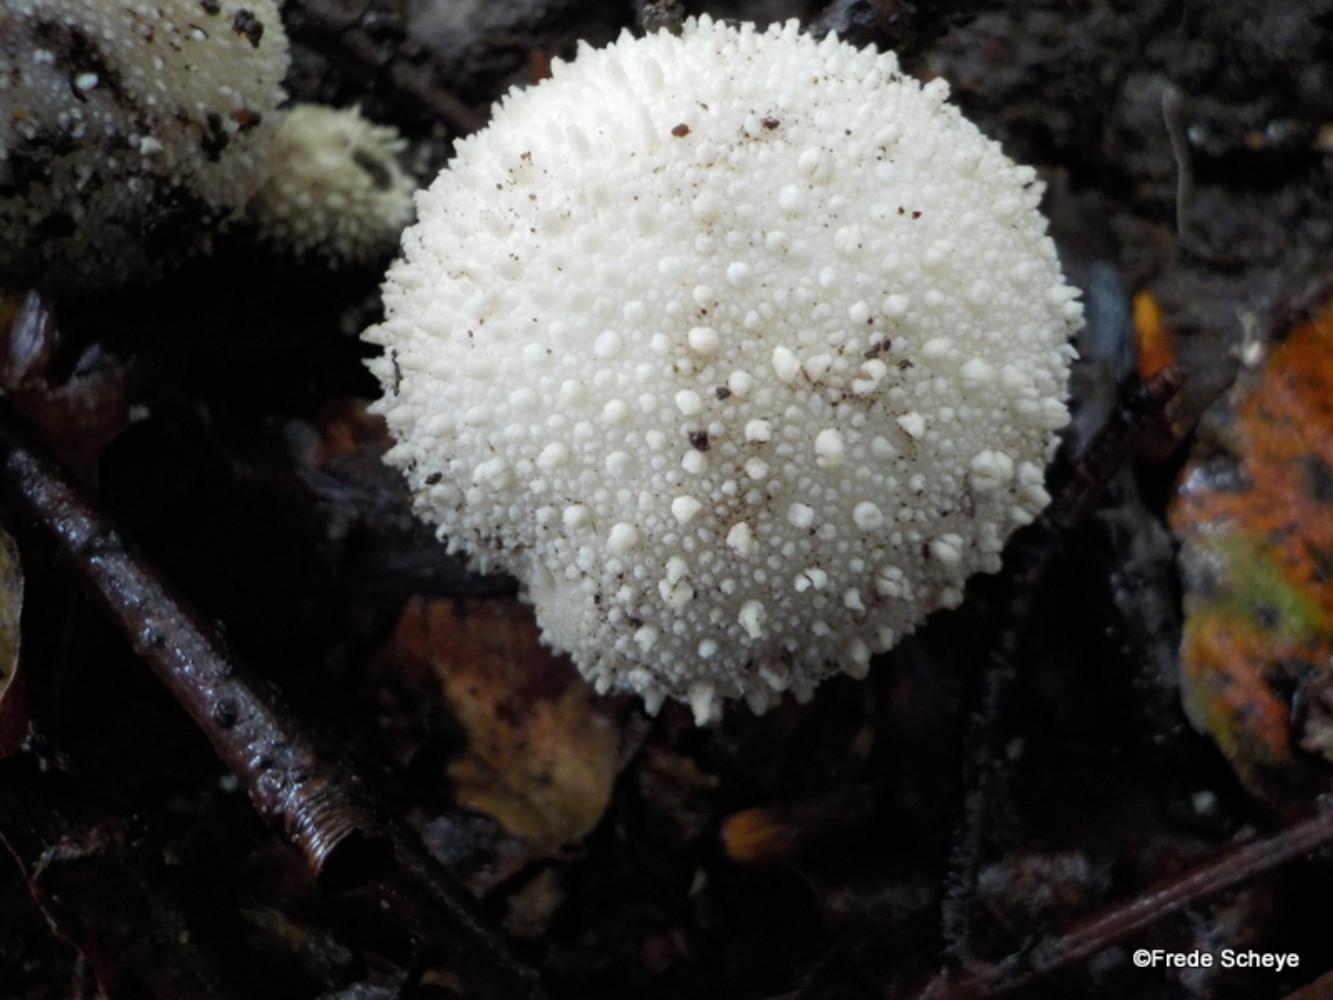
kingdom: Fungi
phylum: Basidiomycota
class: Agaricomycetes
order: Agaricales
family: Lycoperdaceae
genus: Lycoperdon
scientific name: Lycoperdon perlatum
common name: krystal-støvbold
